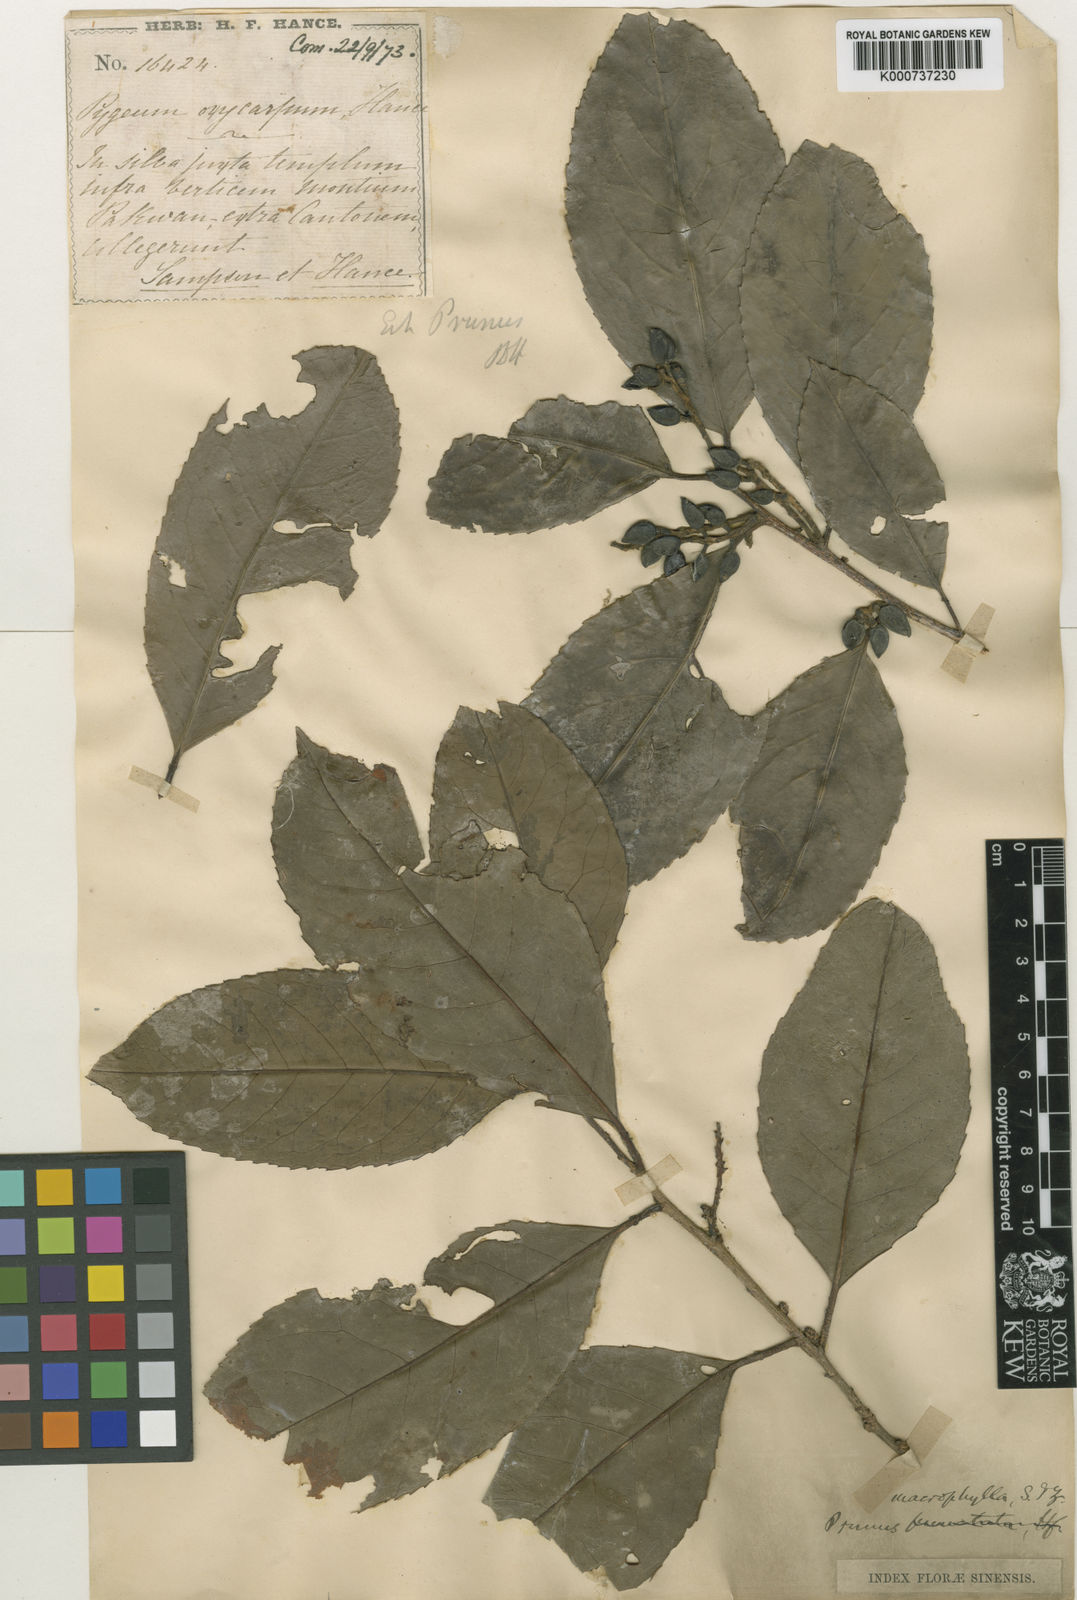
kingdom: Plantae
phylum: Tracheophyta
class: Magnoliopsida
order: Rosales
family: Rosaceae
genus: Prunus
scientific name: Prunus zippeliana
